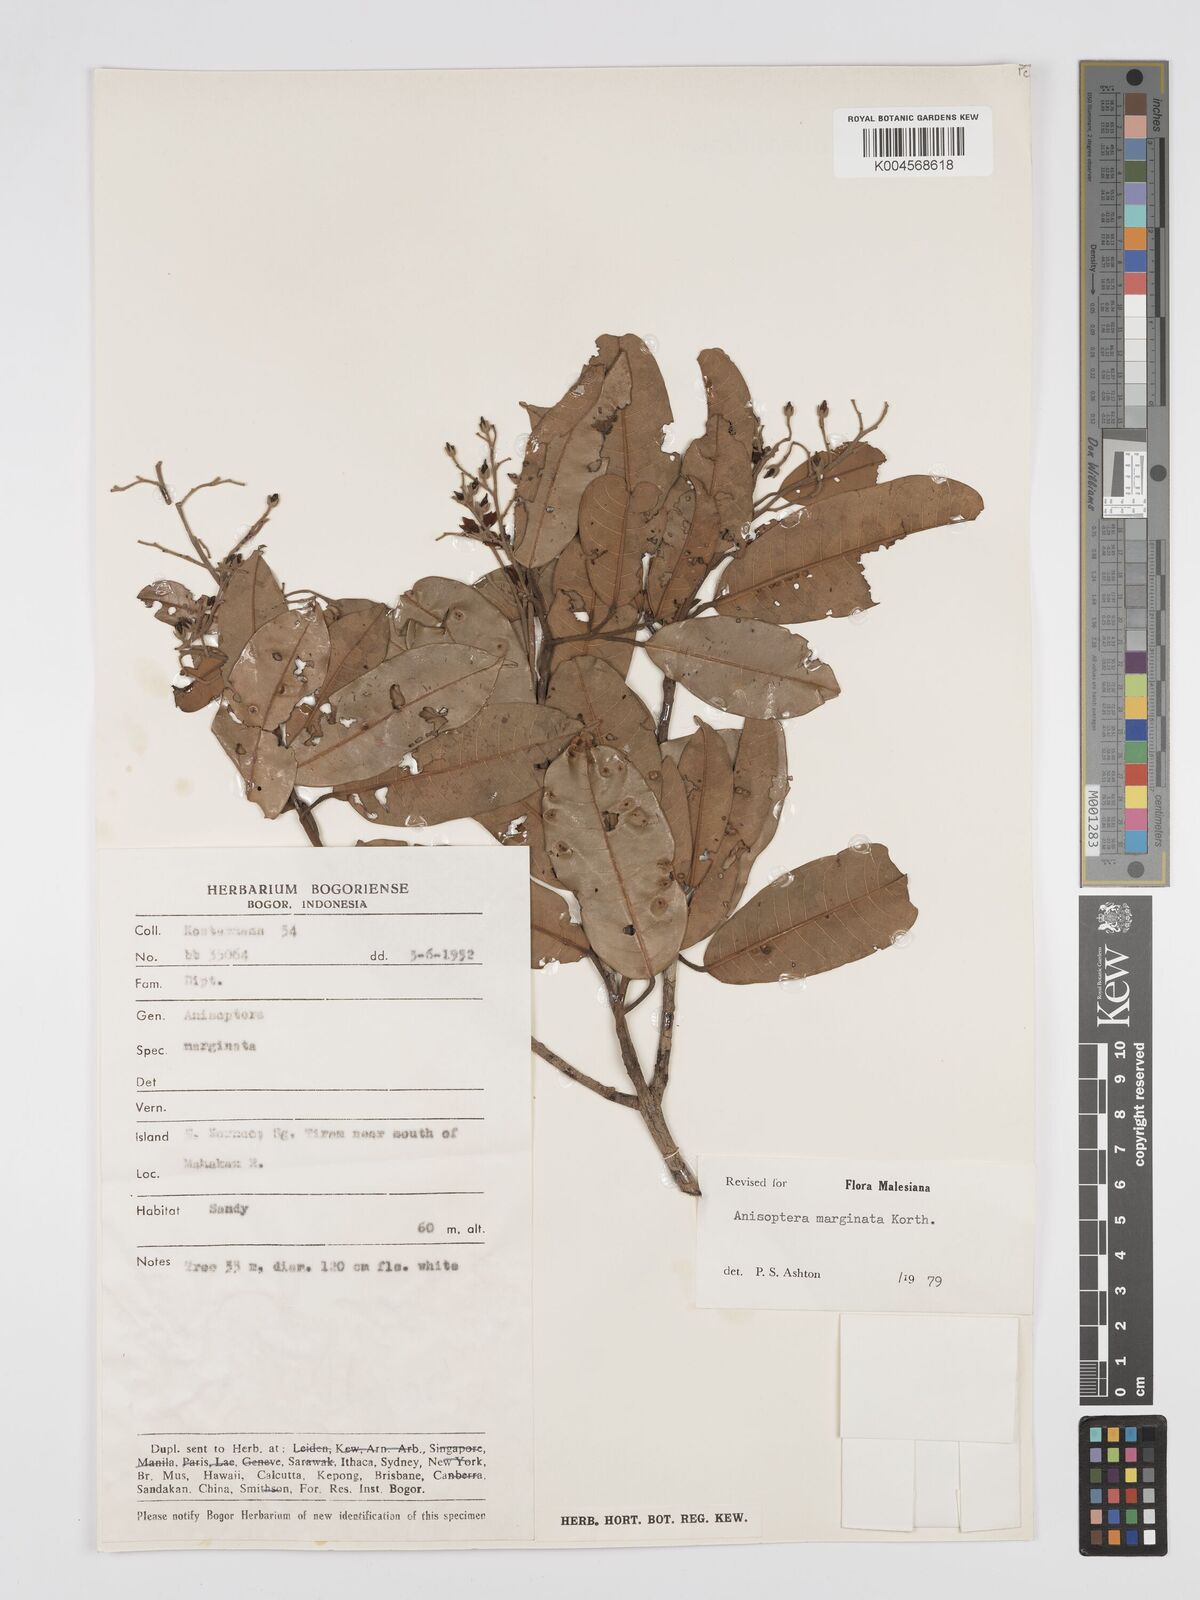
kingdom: Plantae
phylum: Tracheophyta
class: Magnoliopsida
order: Malvales
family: Dipterocarpaceae
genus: Anisoptera
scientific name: Anisoptera marginata
